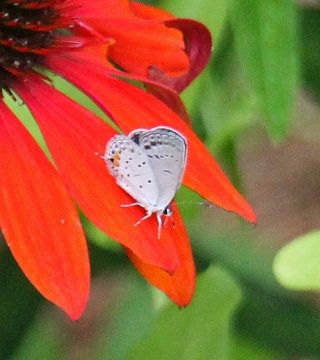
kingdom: Animalia
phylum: Arthropoda
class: Insecta
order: Lepidoptera
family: Lycaenidae
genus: Elkalyce
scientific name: Elkalyce comyntas
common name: Eastern Tailed-Blue
